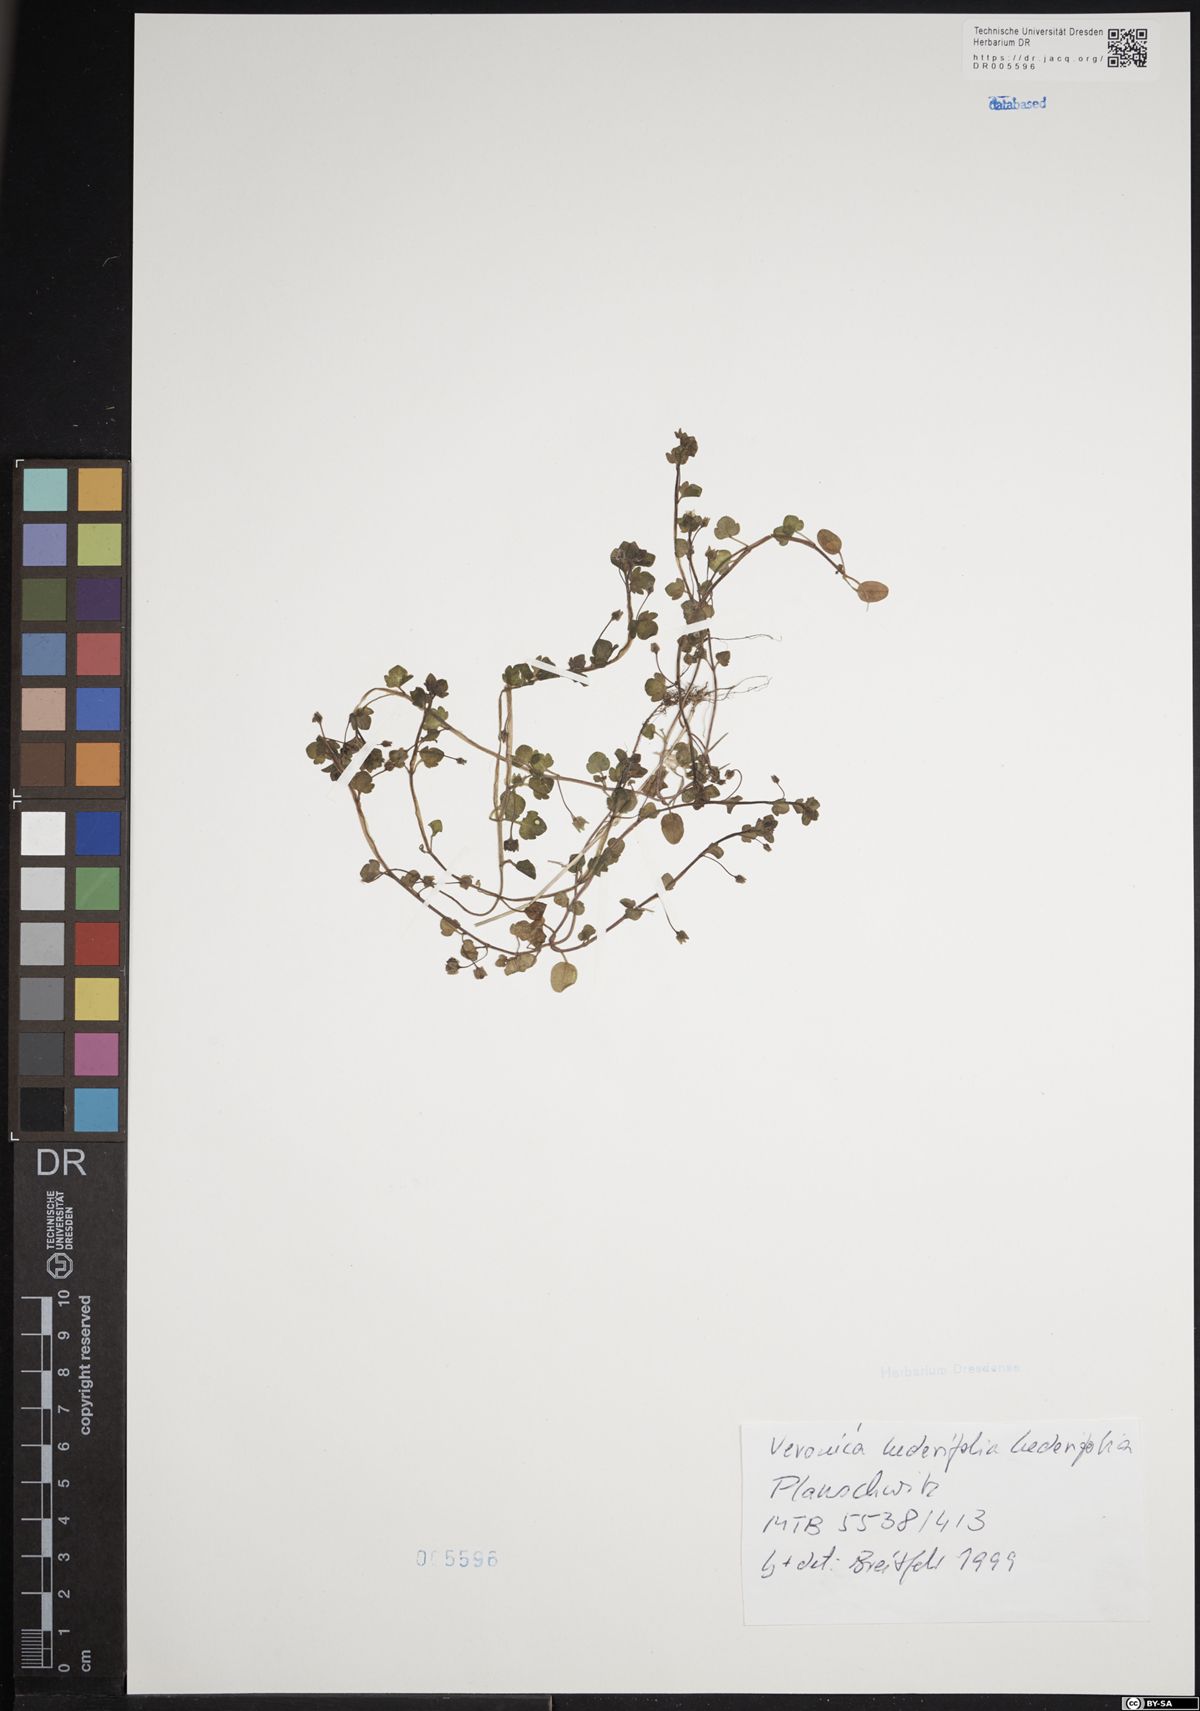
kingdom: Plantae
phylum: Tracheophyta
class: Magnoliopsida
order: Lamiales
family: Plantaginaceae
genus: Veronica
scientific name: Veronica hederifolia
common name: Ivy-leaved speedwell
